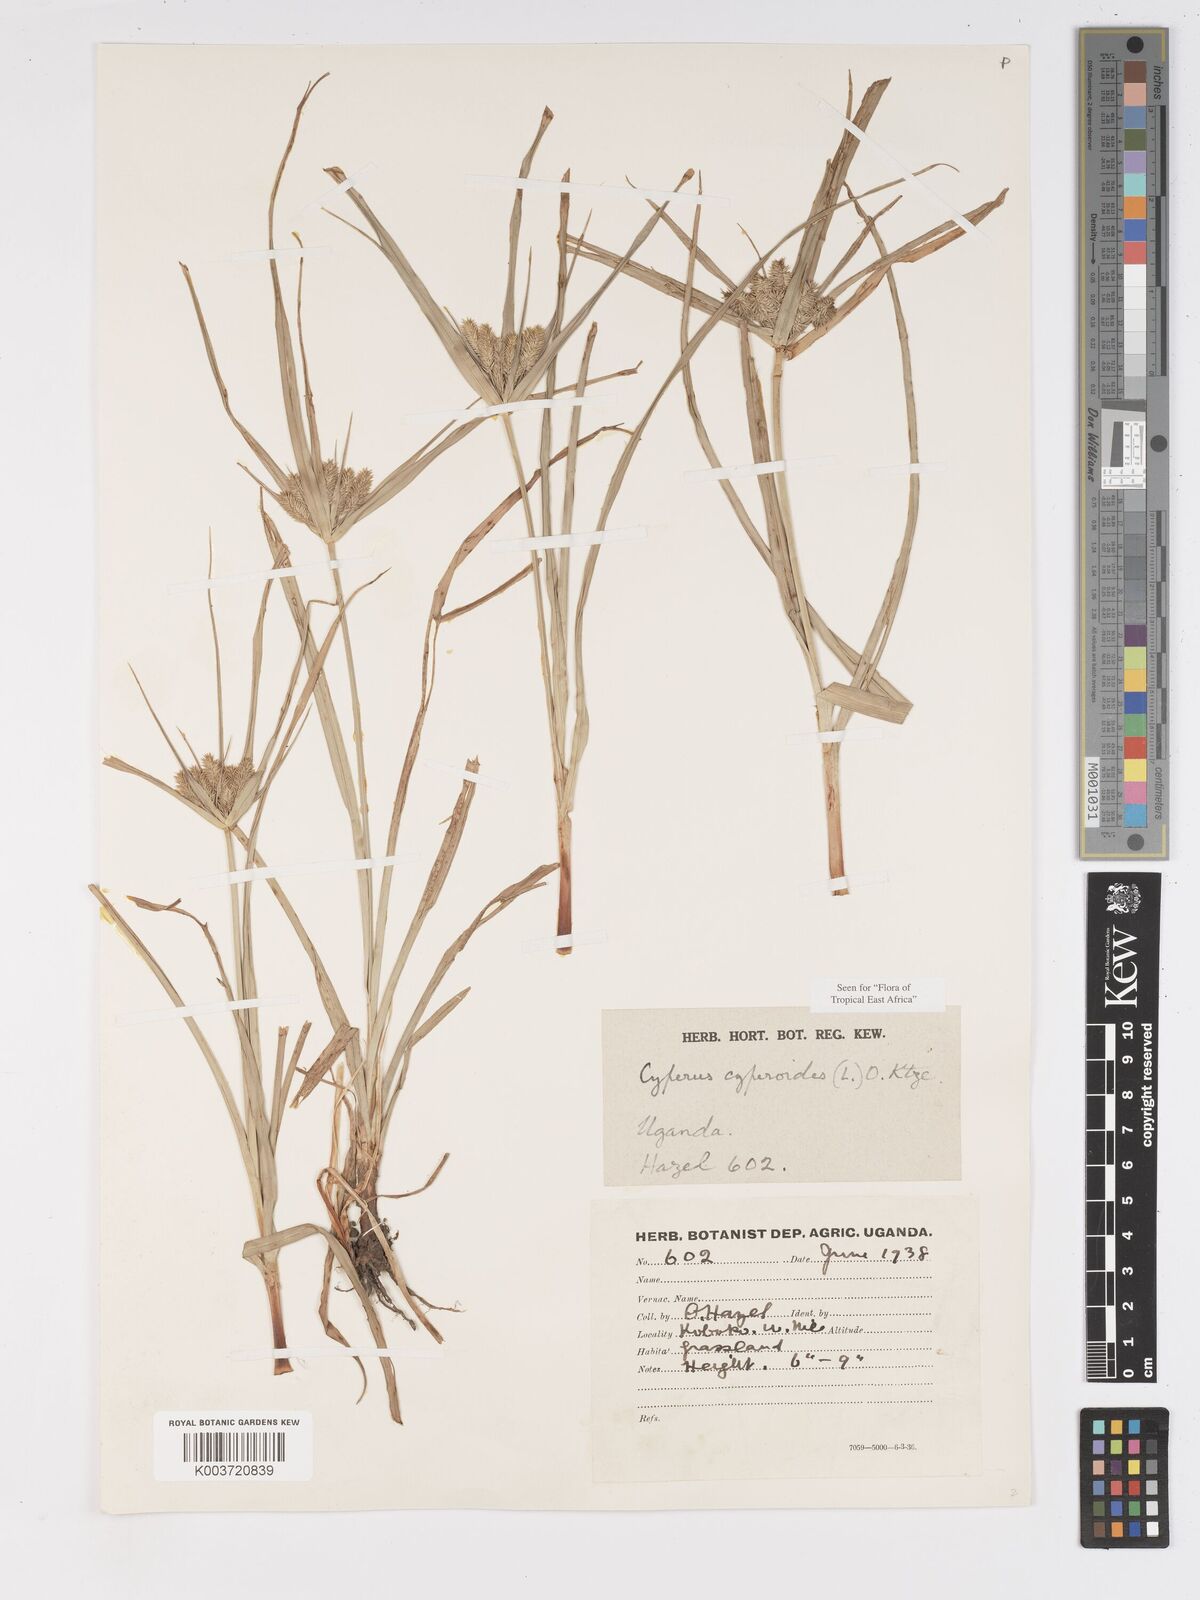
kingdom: Plantae
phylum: Tracheophyta
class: Liliopsida
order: Poales
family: Cyperaceae
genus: Cyperus
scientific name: Cyperus cyperoides
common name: Pacific island flat sedge
